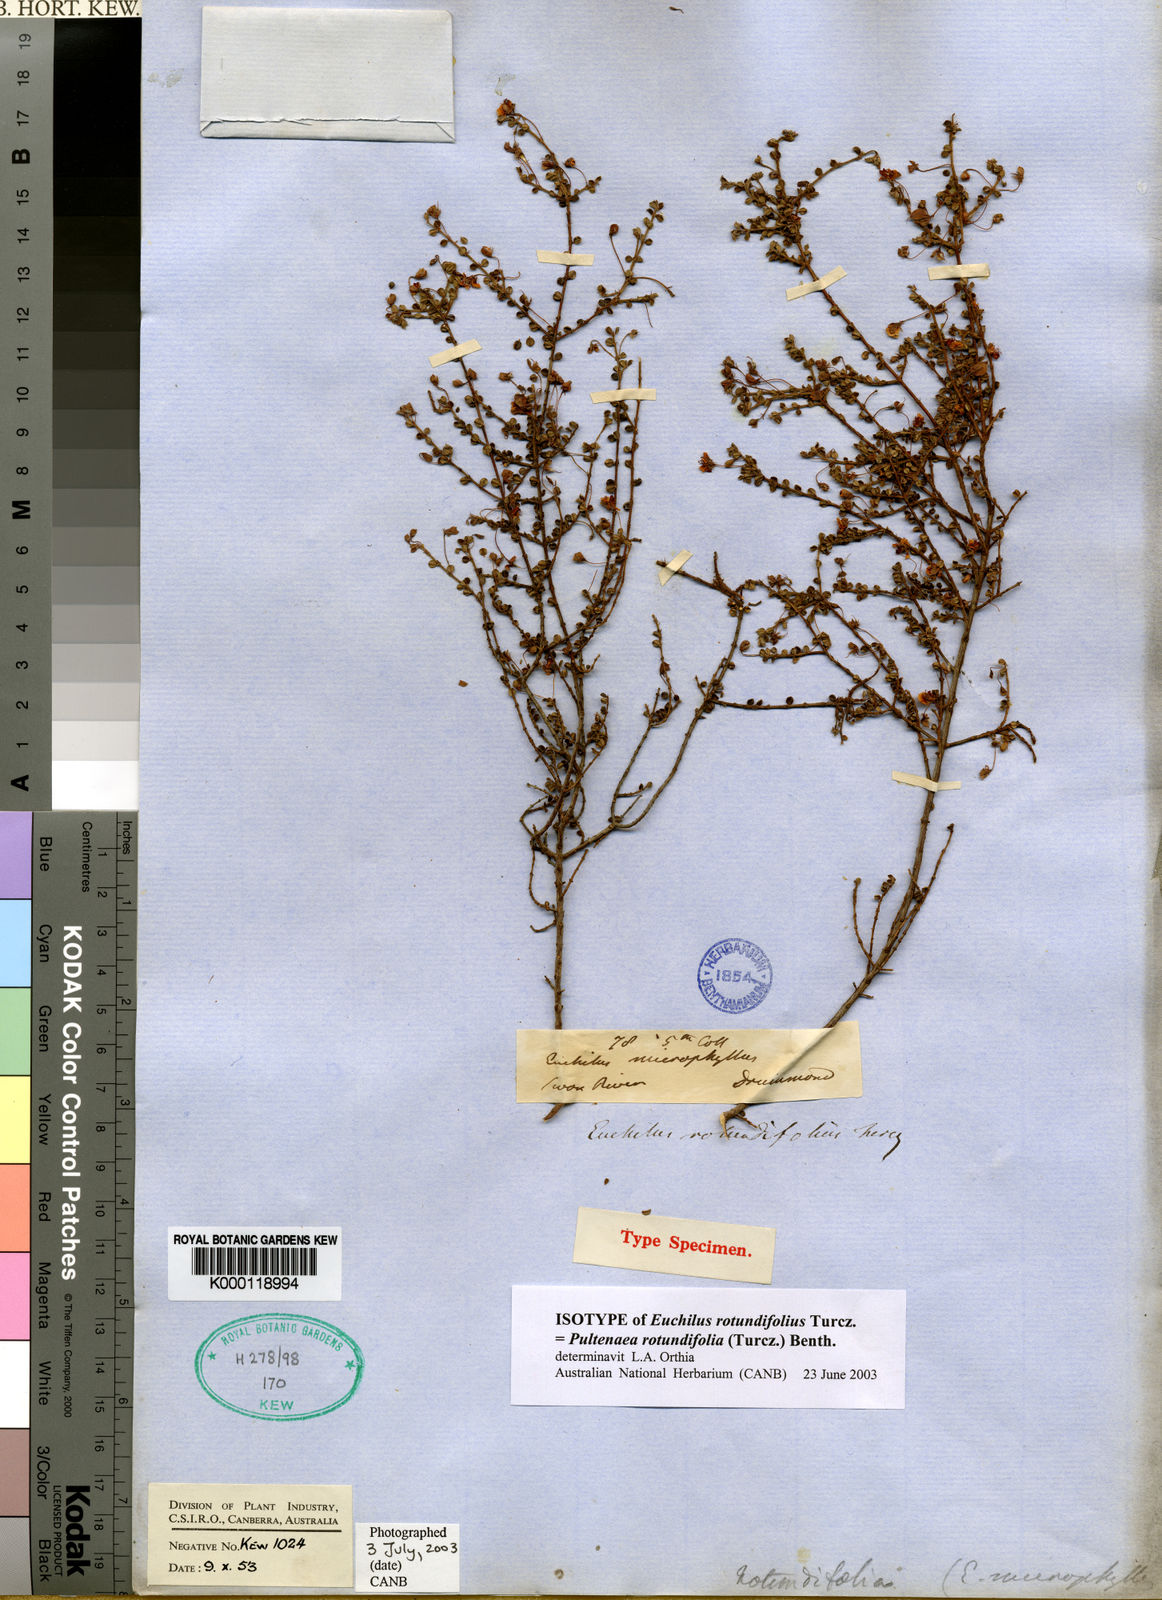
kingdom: Plantae
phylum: Tracheophyta
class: Magnoliopsida
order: Fabales
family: Fabaceae
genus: Pultenaea
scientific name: Pultenaea rotundifolia
